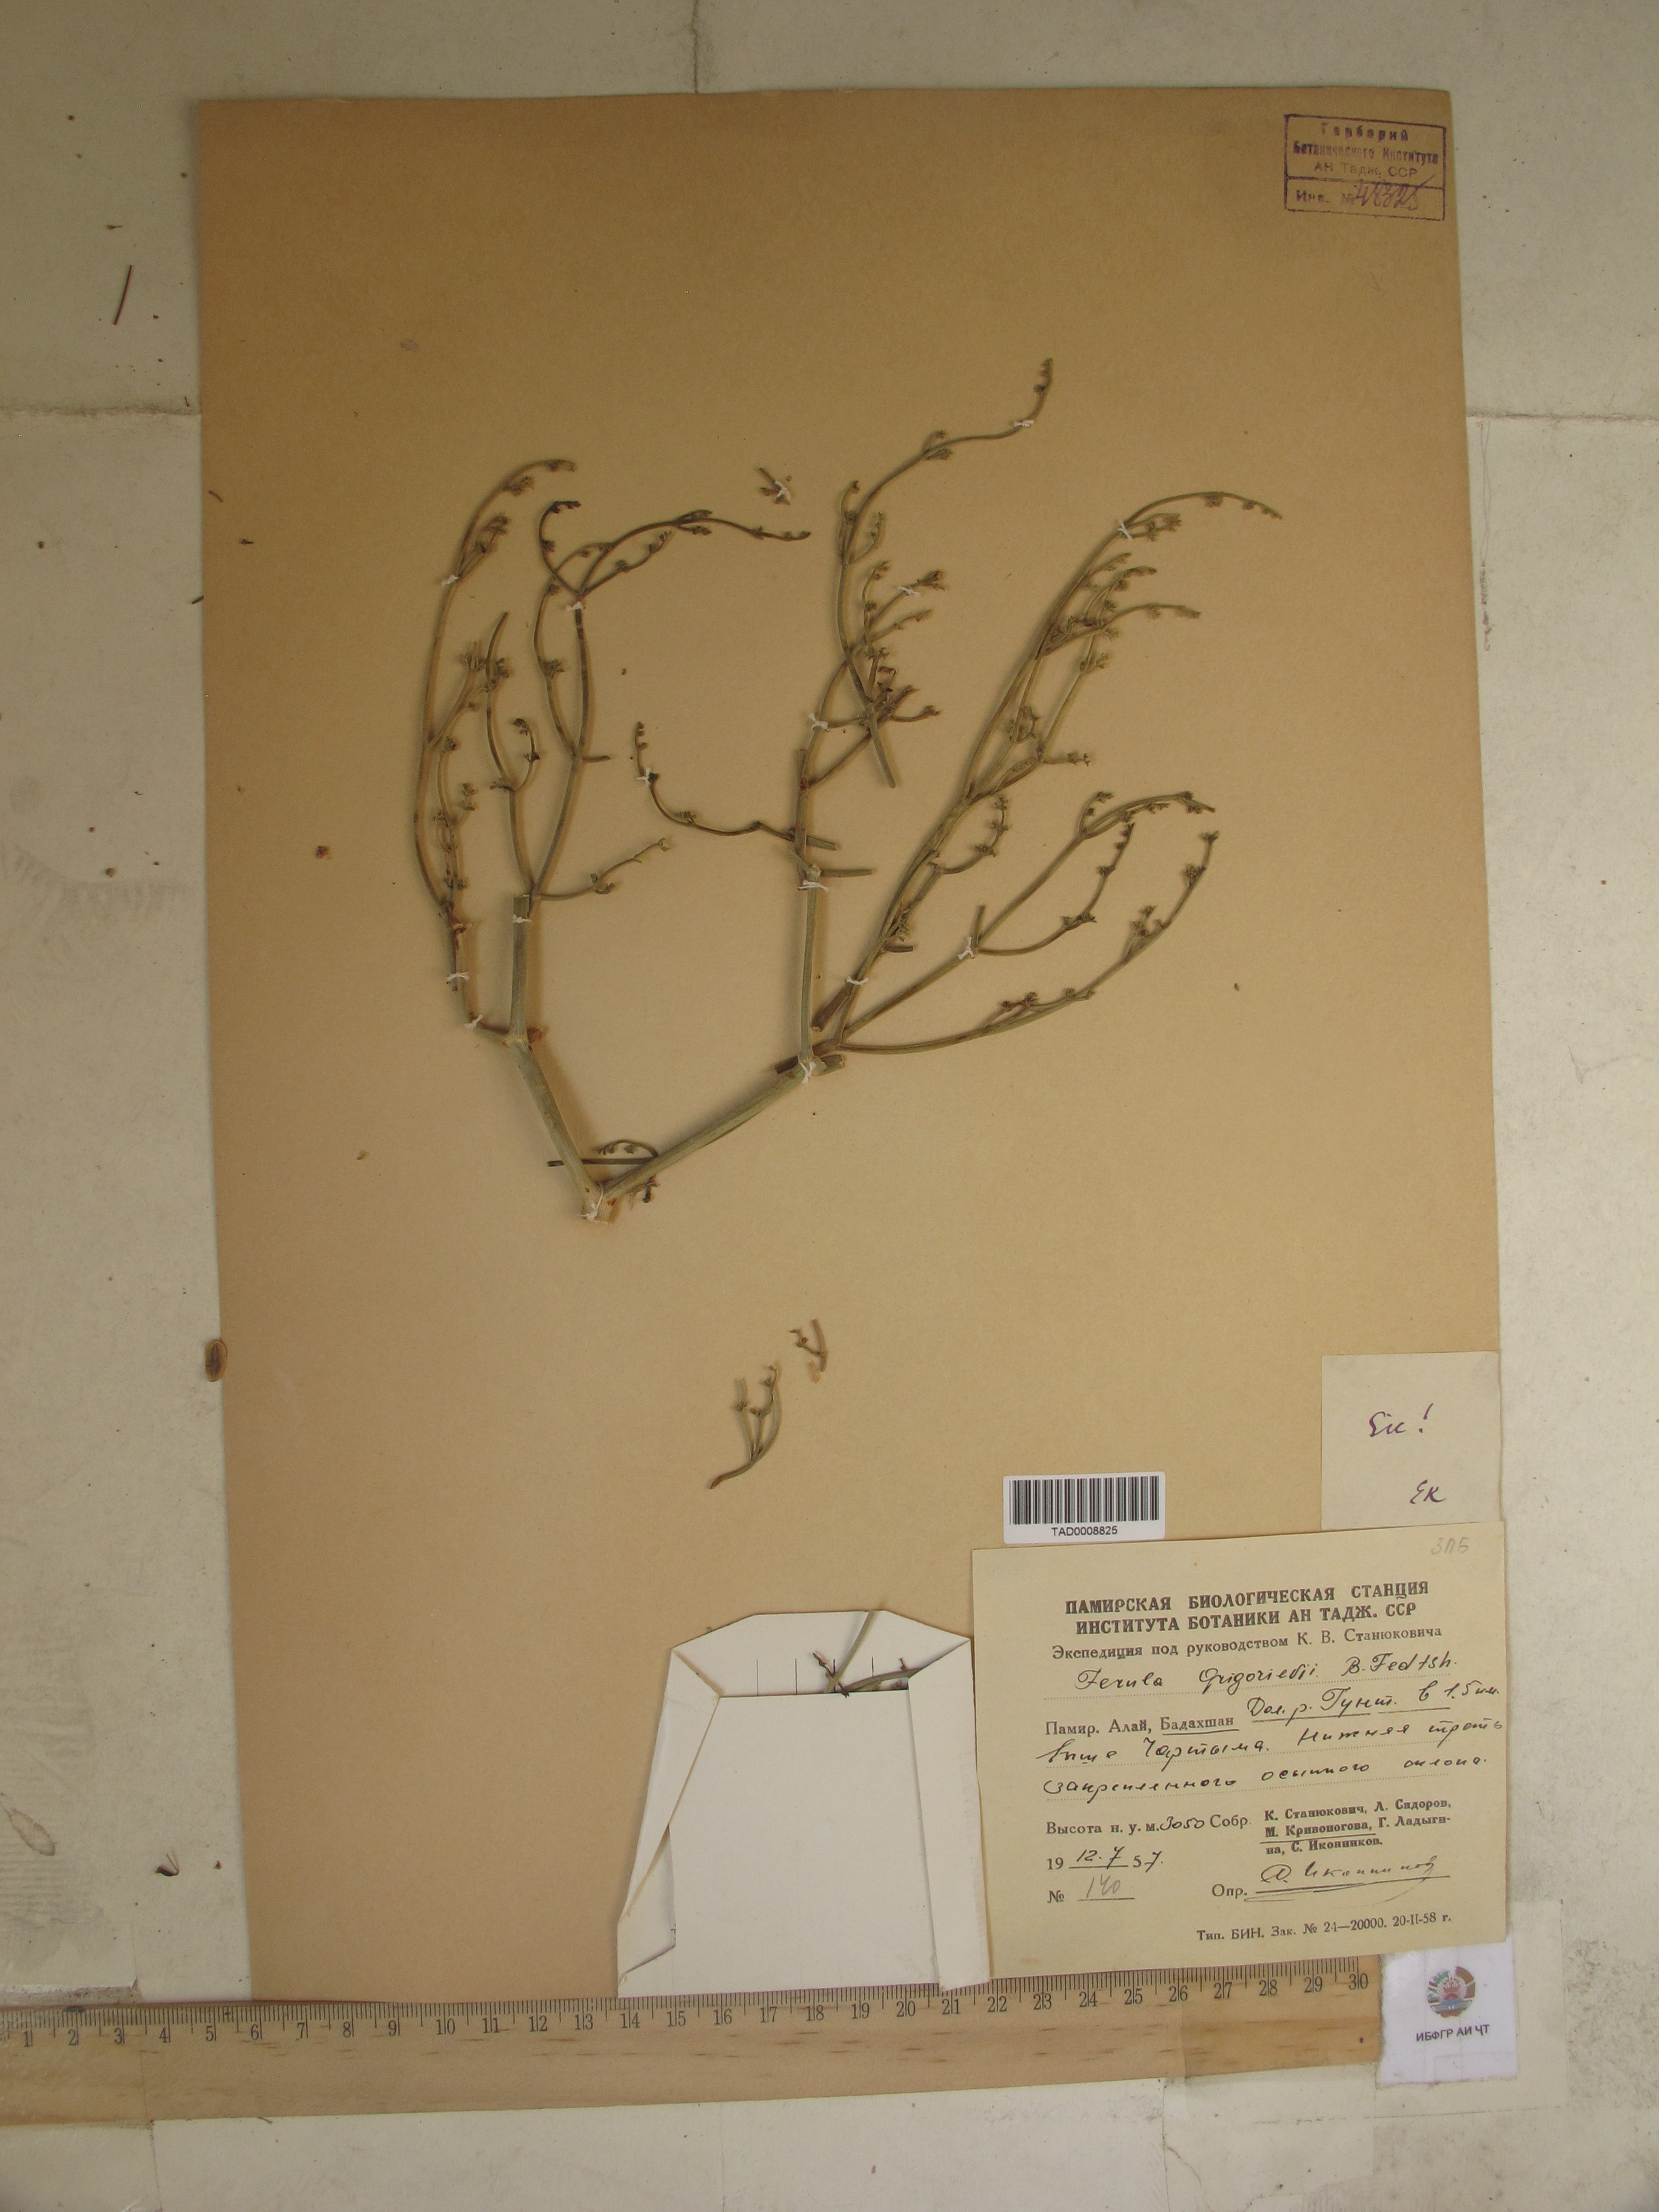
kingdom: Plantae
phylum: Tracheophyta
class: Magnoliopsida
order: Apiales
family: Apiaceae
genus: Ferula
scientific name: Ferula grigoriewii
